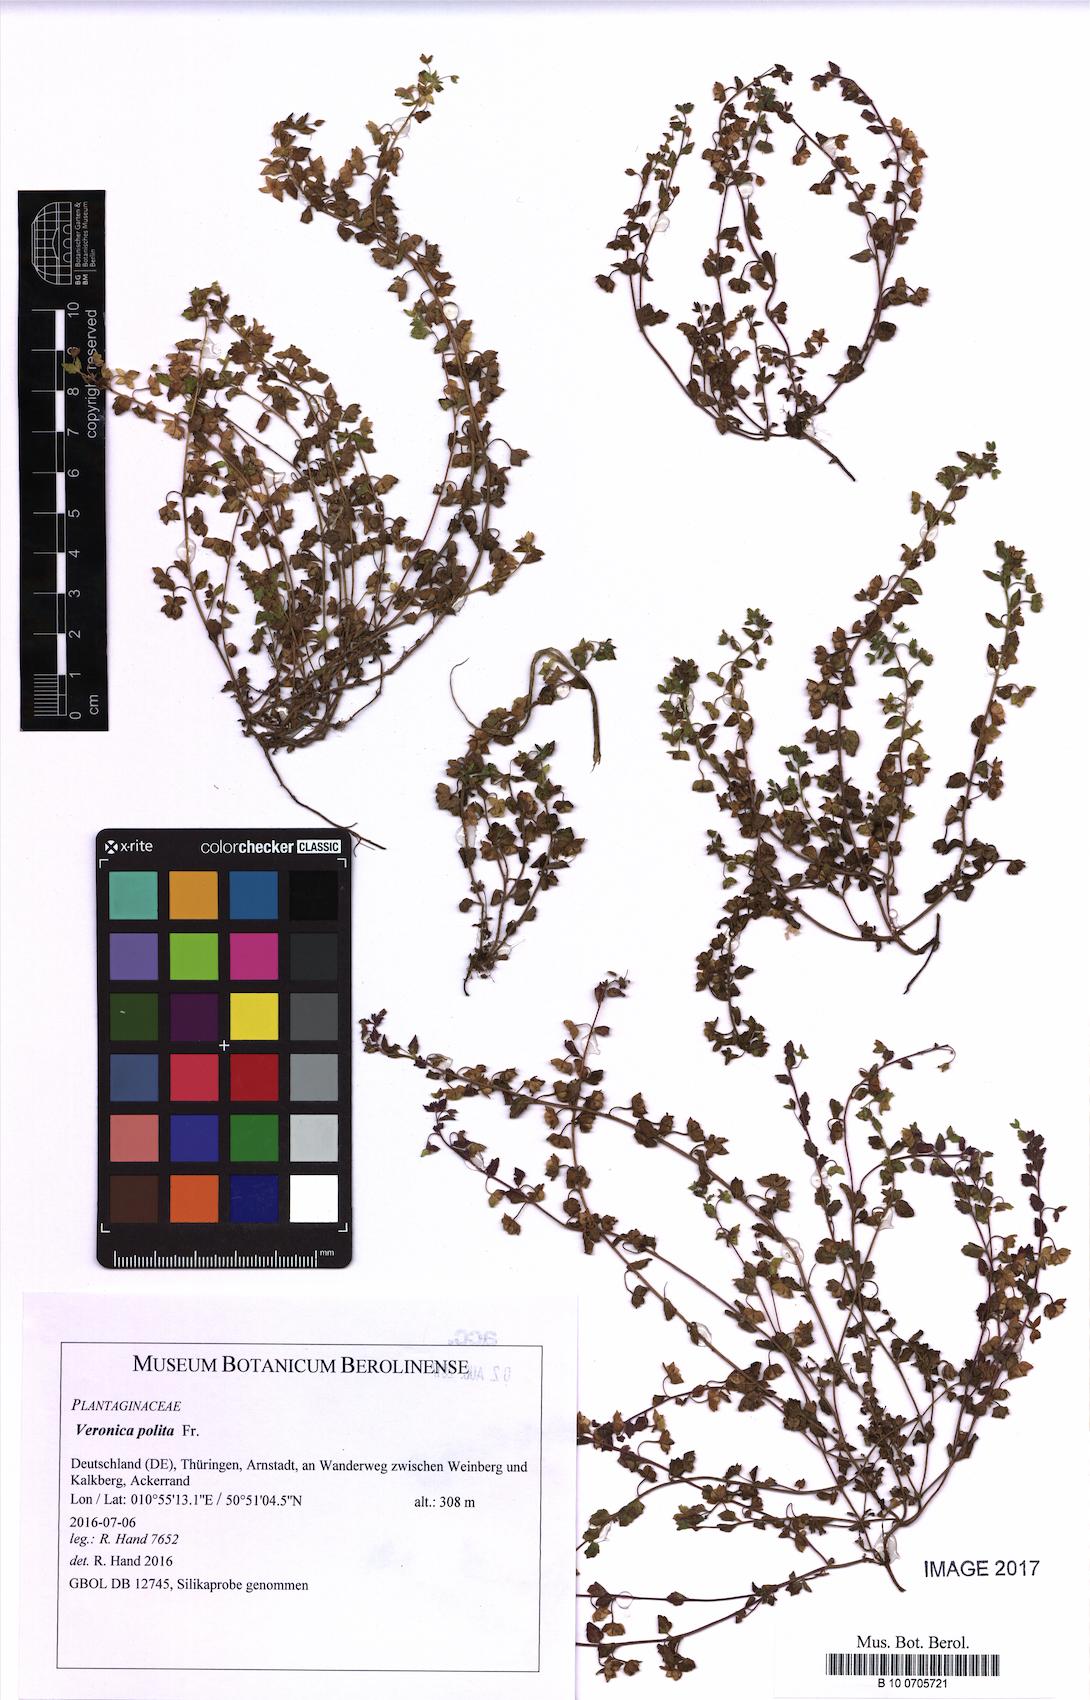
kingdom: Plantae
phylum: Tracheophyta
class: Magnoliopsida
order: Lamiales
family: Plantaginaceae
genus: Veronica
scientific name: Veronica polita
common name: Grey field-speedwell
